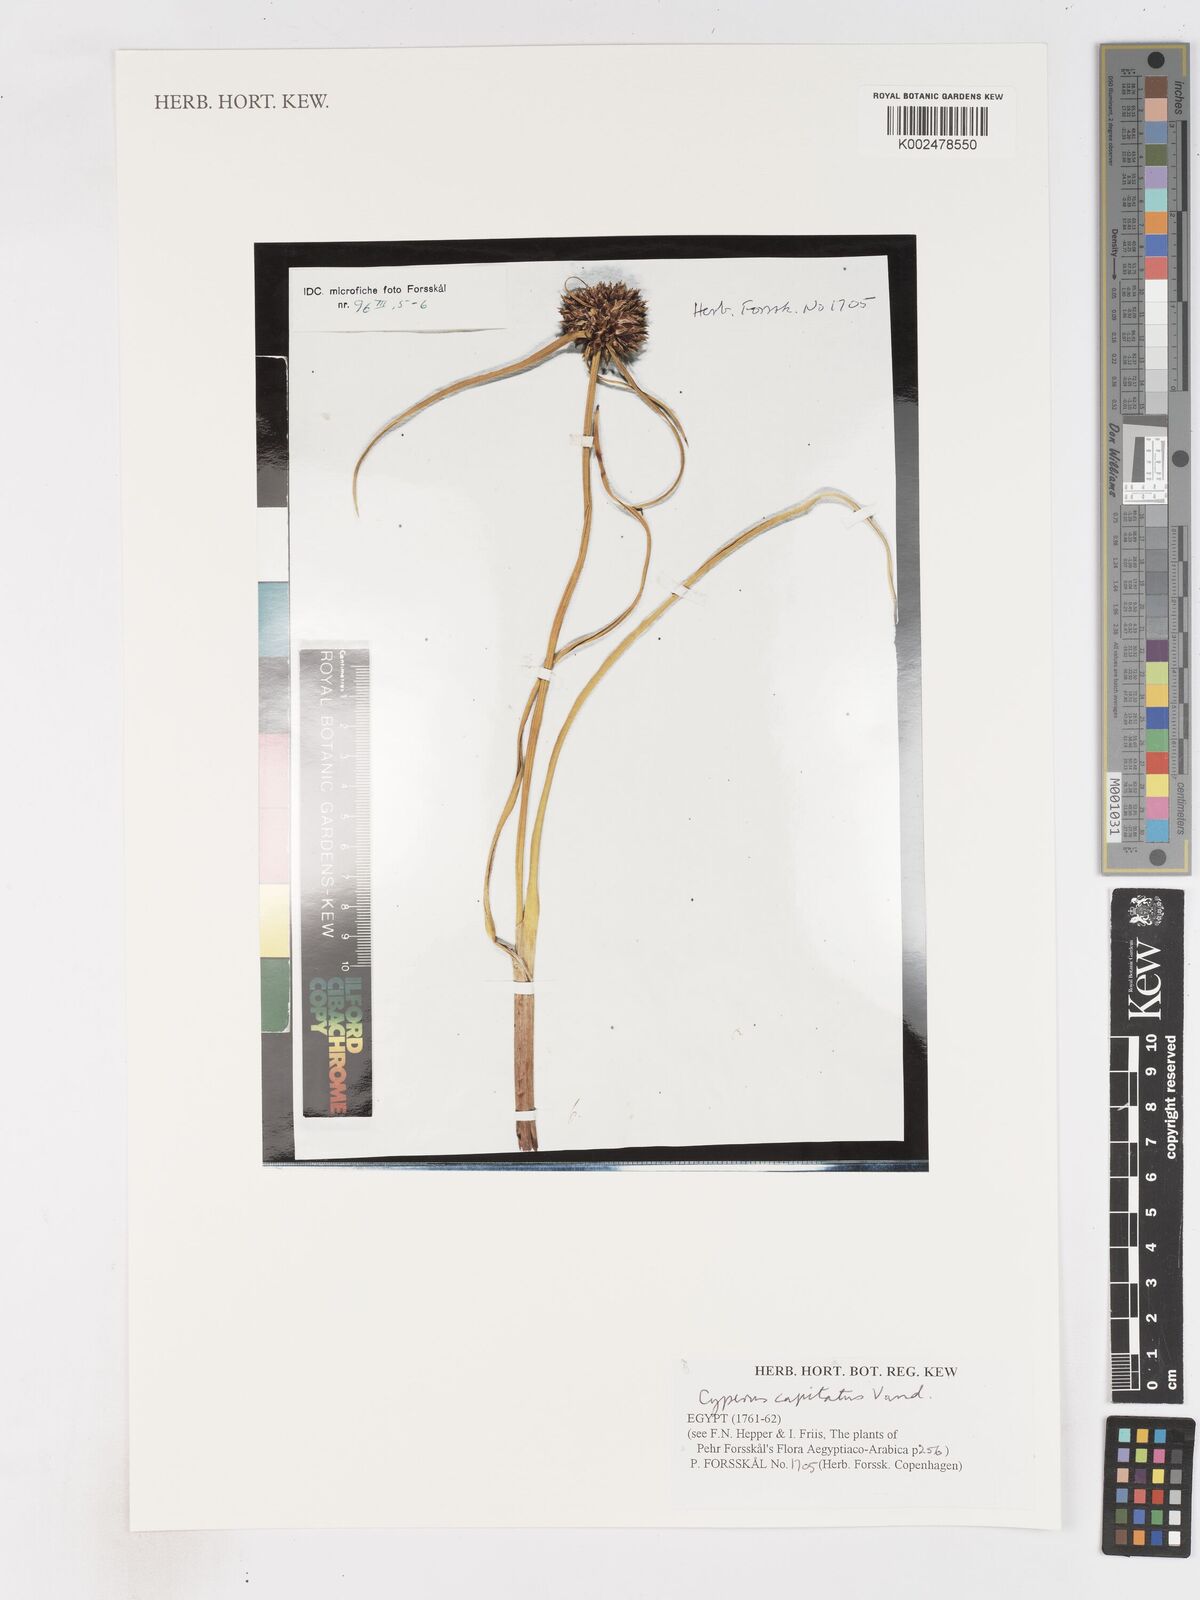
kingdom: Plantae
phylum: Tracheophyta
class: Liliopsida
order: Poales
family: Cyperaceae
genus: Cyperus
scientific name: Cyperus capitatus
